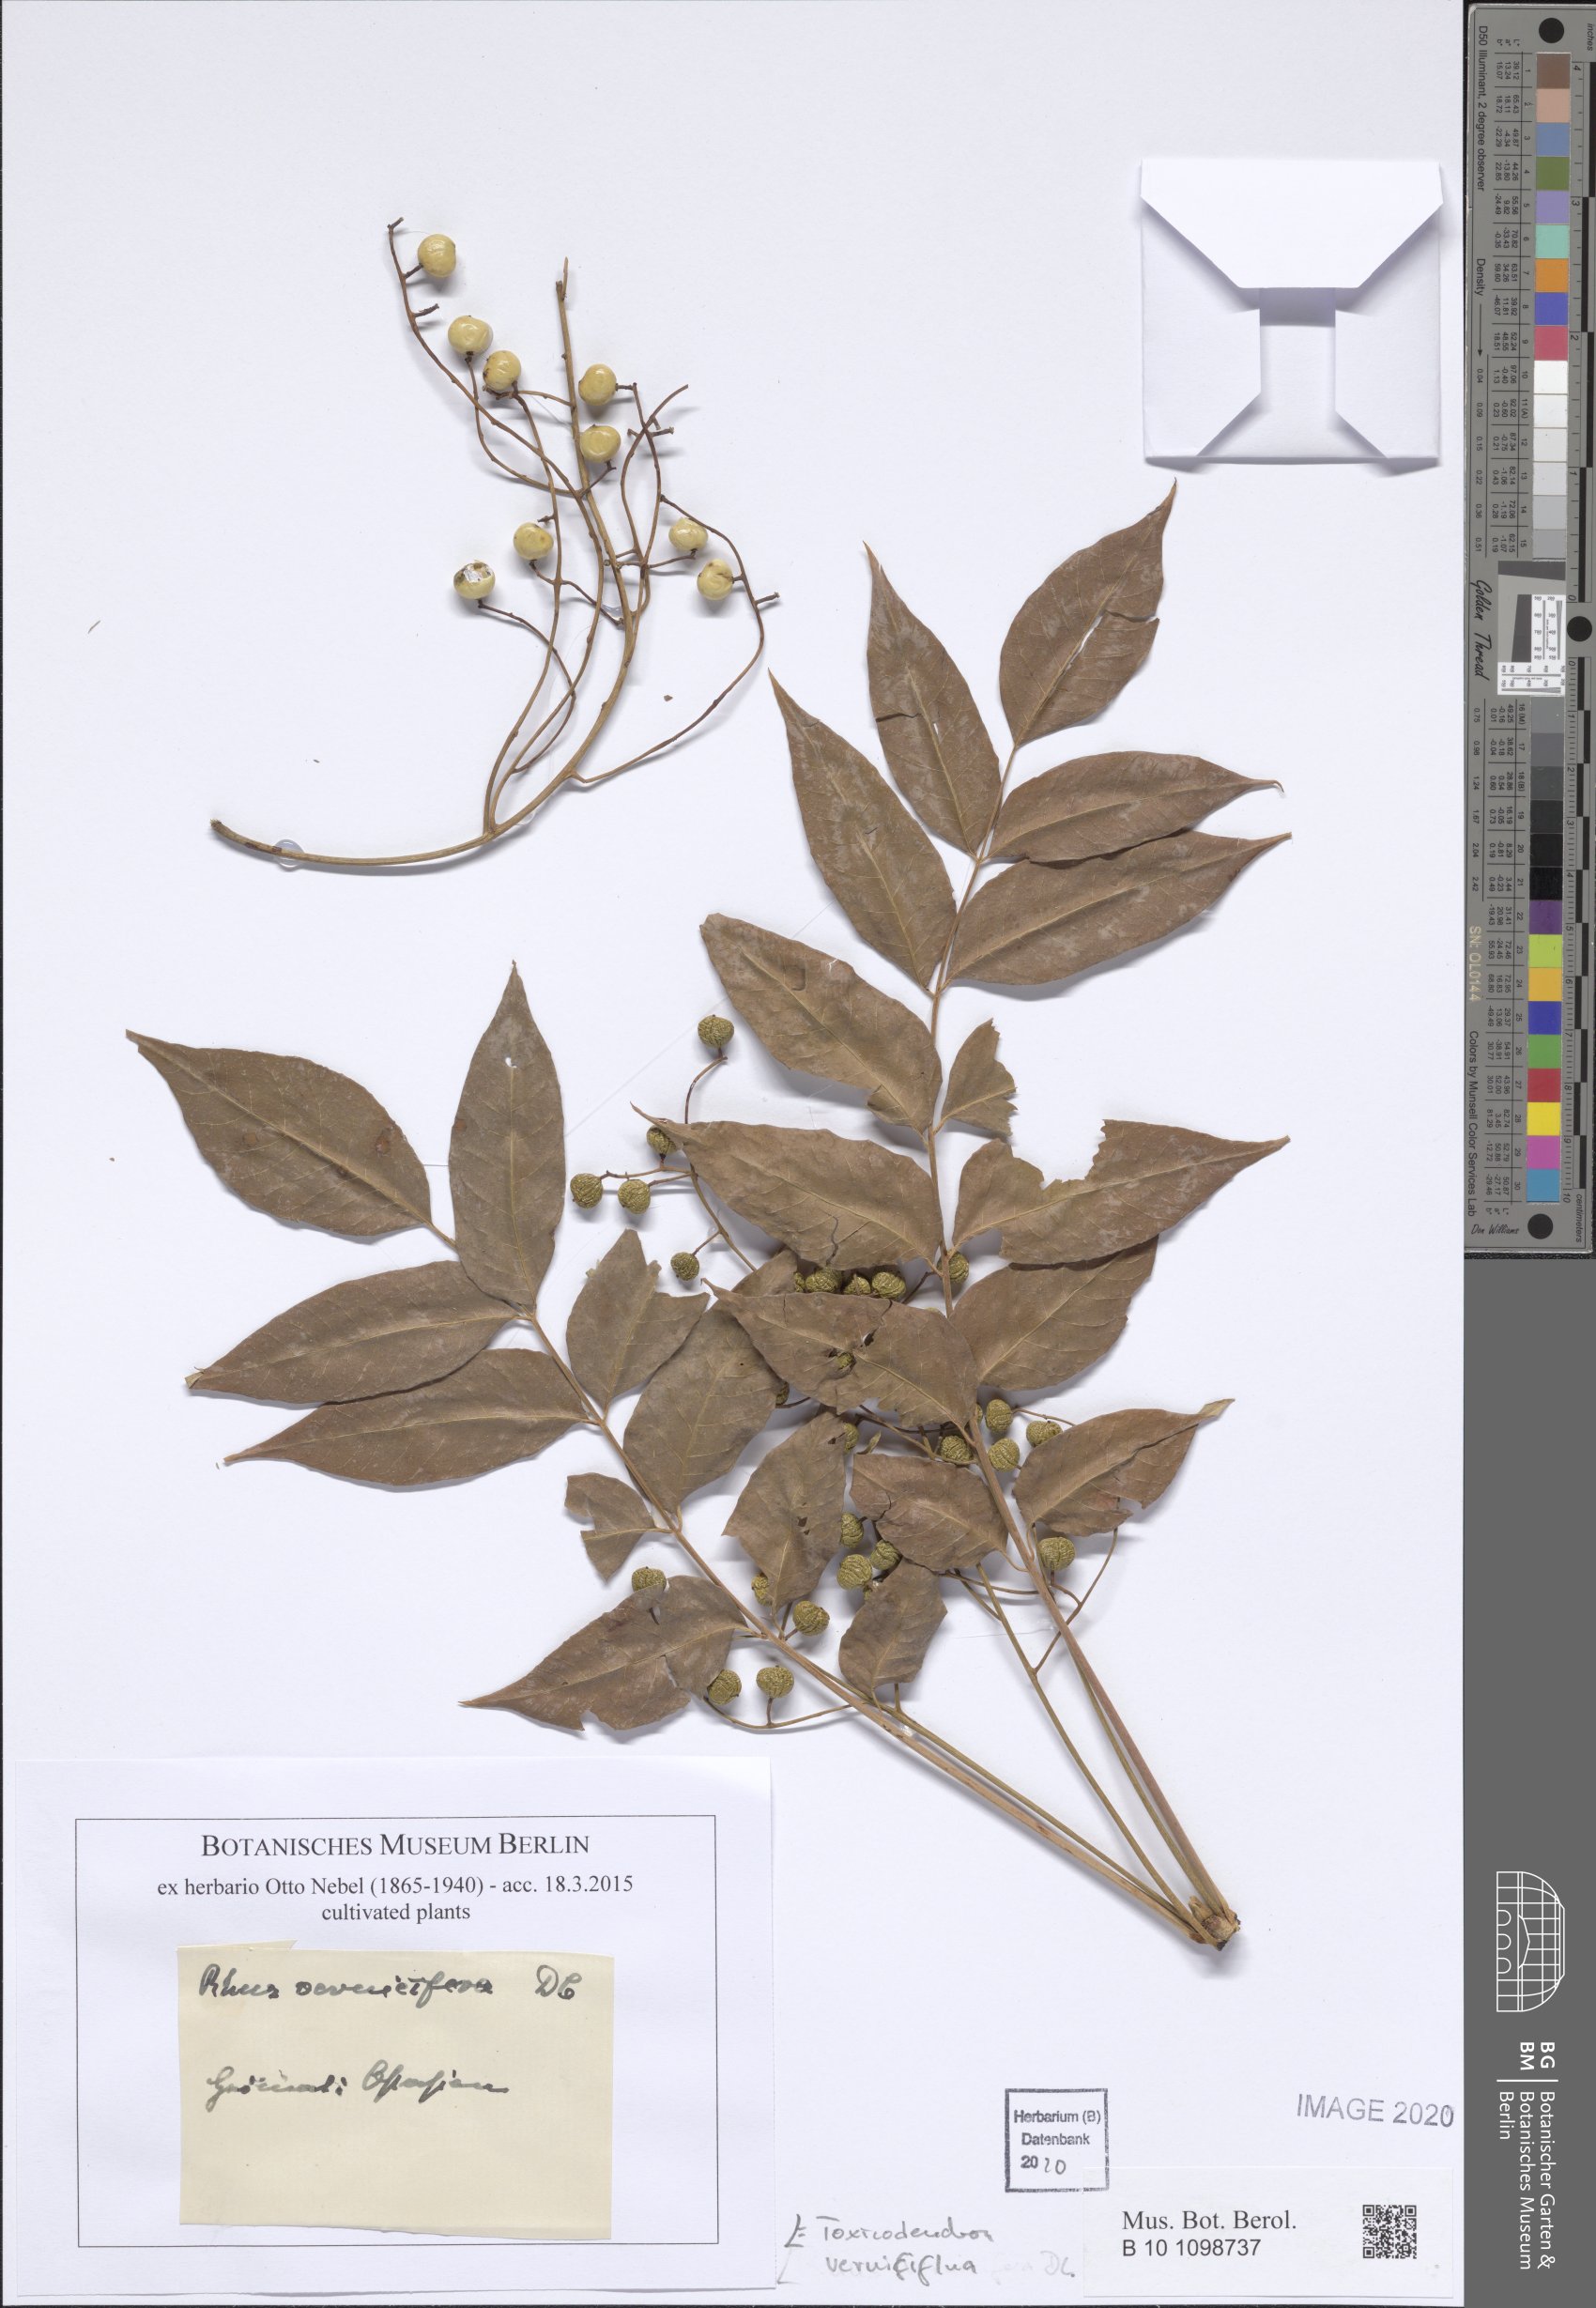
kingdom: Plantae
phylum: Tracheophyta
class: Magnoliopsida
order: Sapindales
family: Anacardiaceae
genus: Toxicodendron
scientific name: Toxicodendron vernicifluum
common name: Japanese lacquertree
